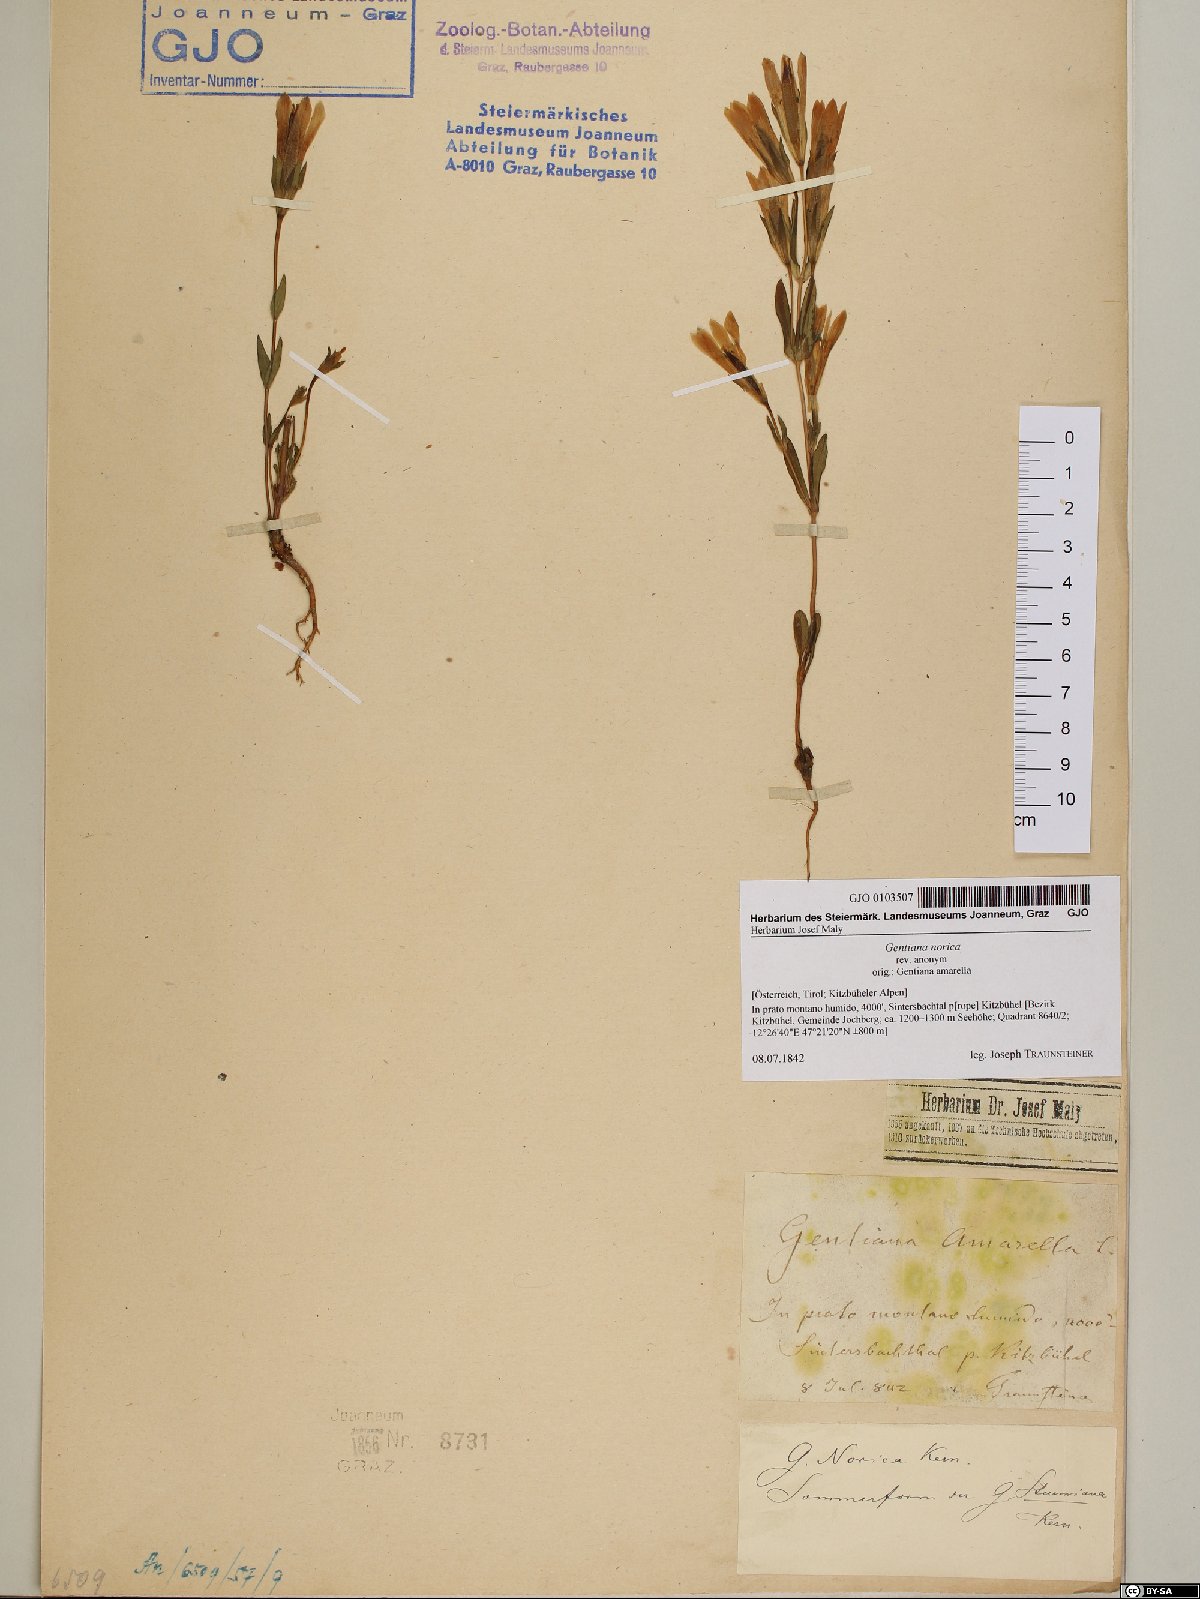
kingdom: Plantae
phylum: Tracheophyta
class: Magnoliopsida
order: Gentianales
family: Gentianaceae
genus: Gentianella
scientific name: Gentianella obtusifolia
